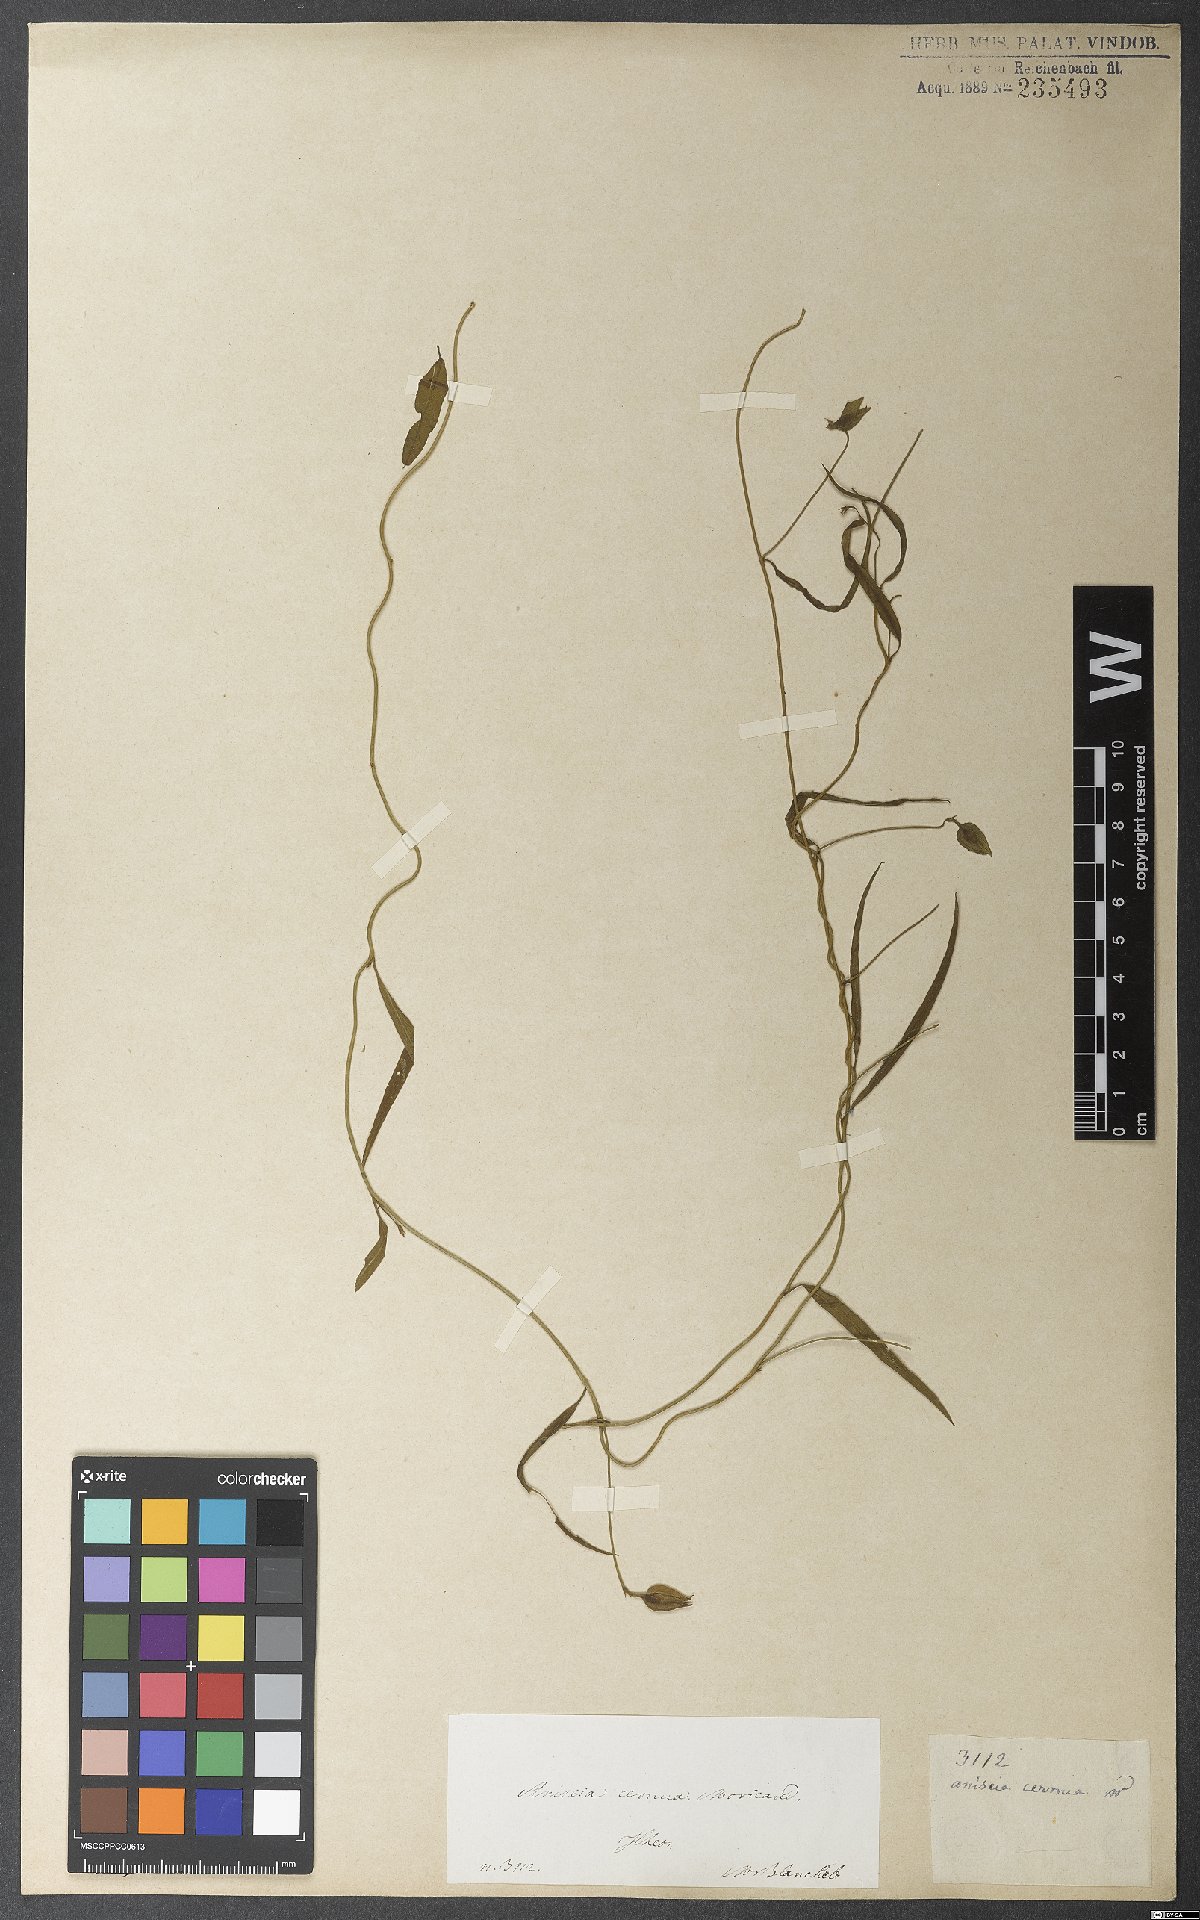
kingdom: Plantae
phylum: Tracheophyta
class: Magnoliopsida
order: Solanales
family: Convolvulaceae
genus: Aniseia
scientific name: Aniseia martinicensis
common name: Kulayadambu
